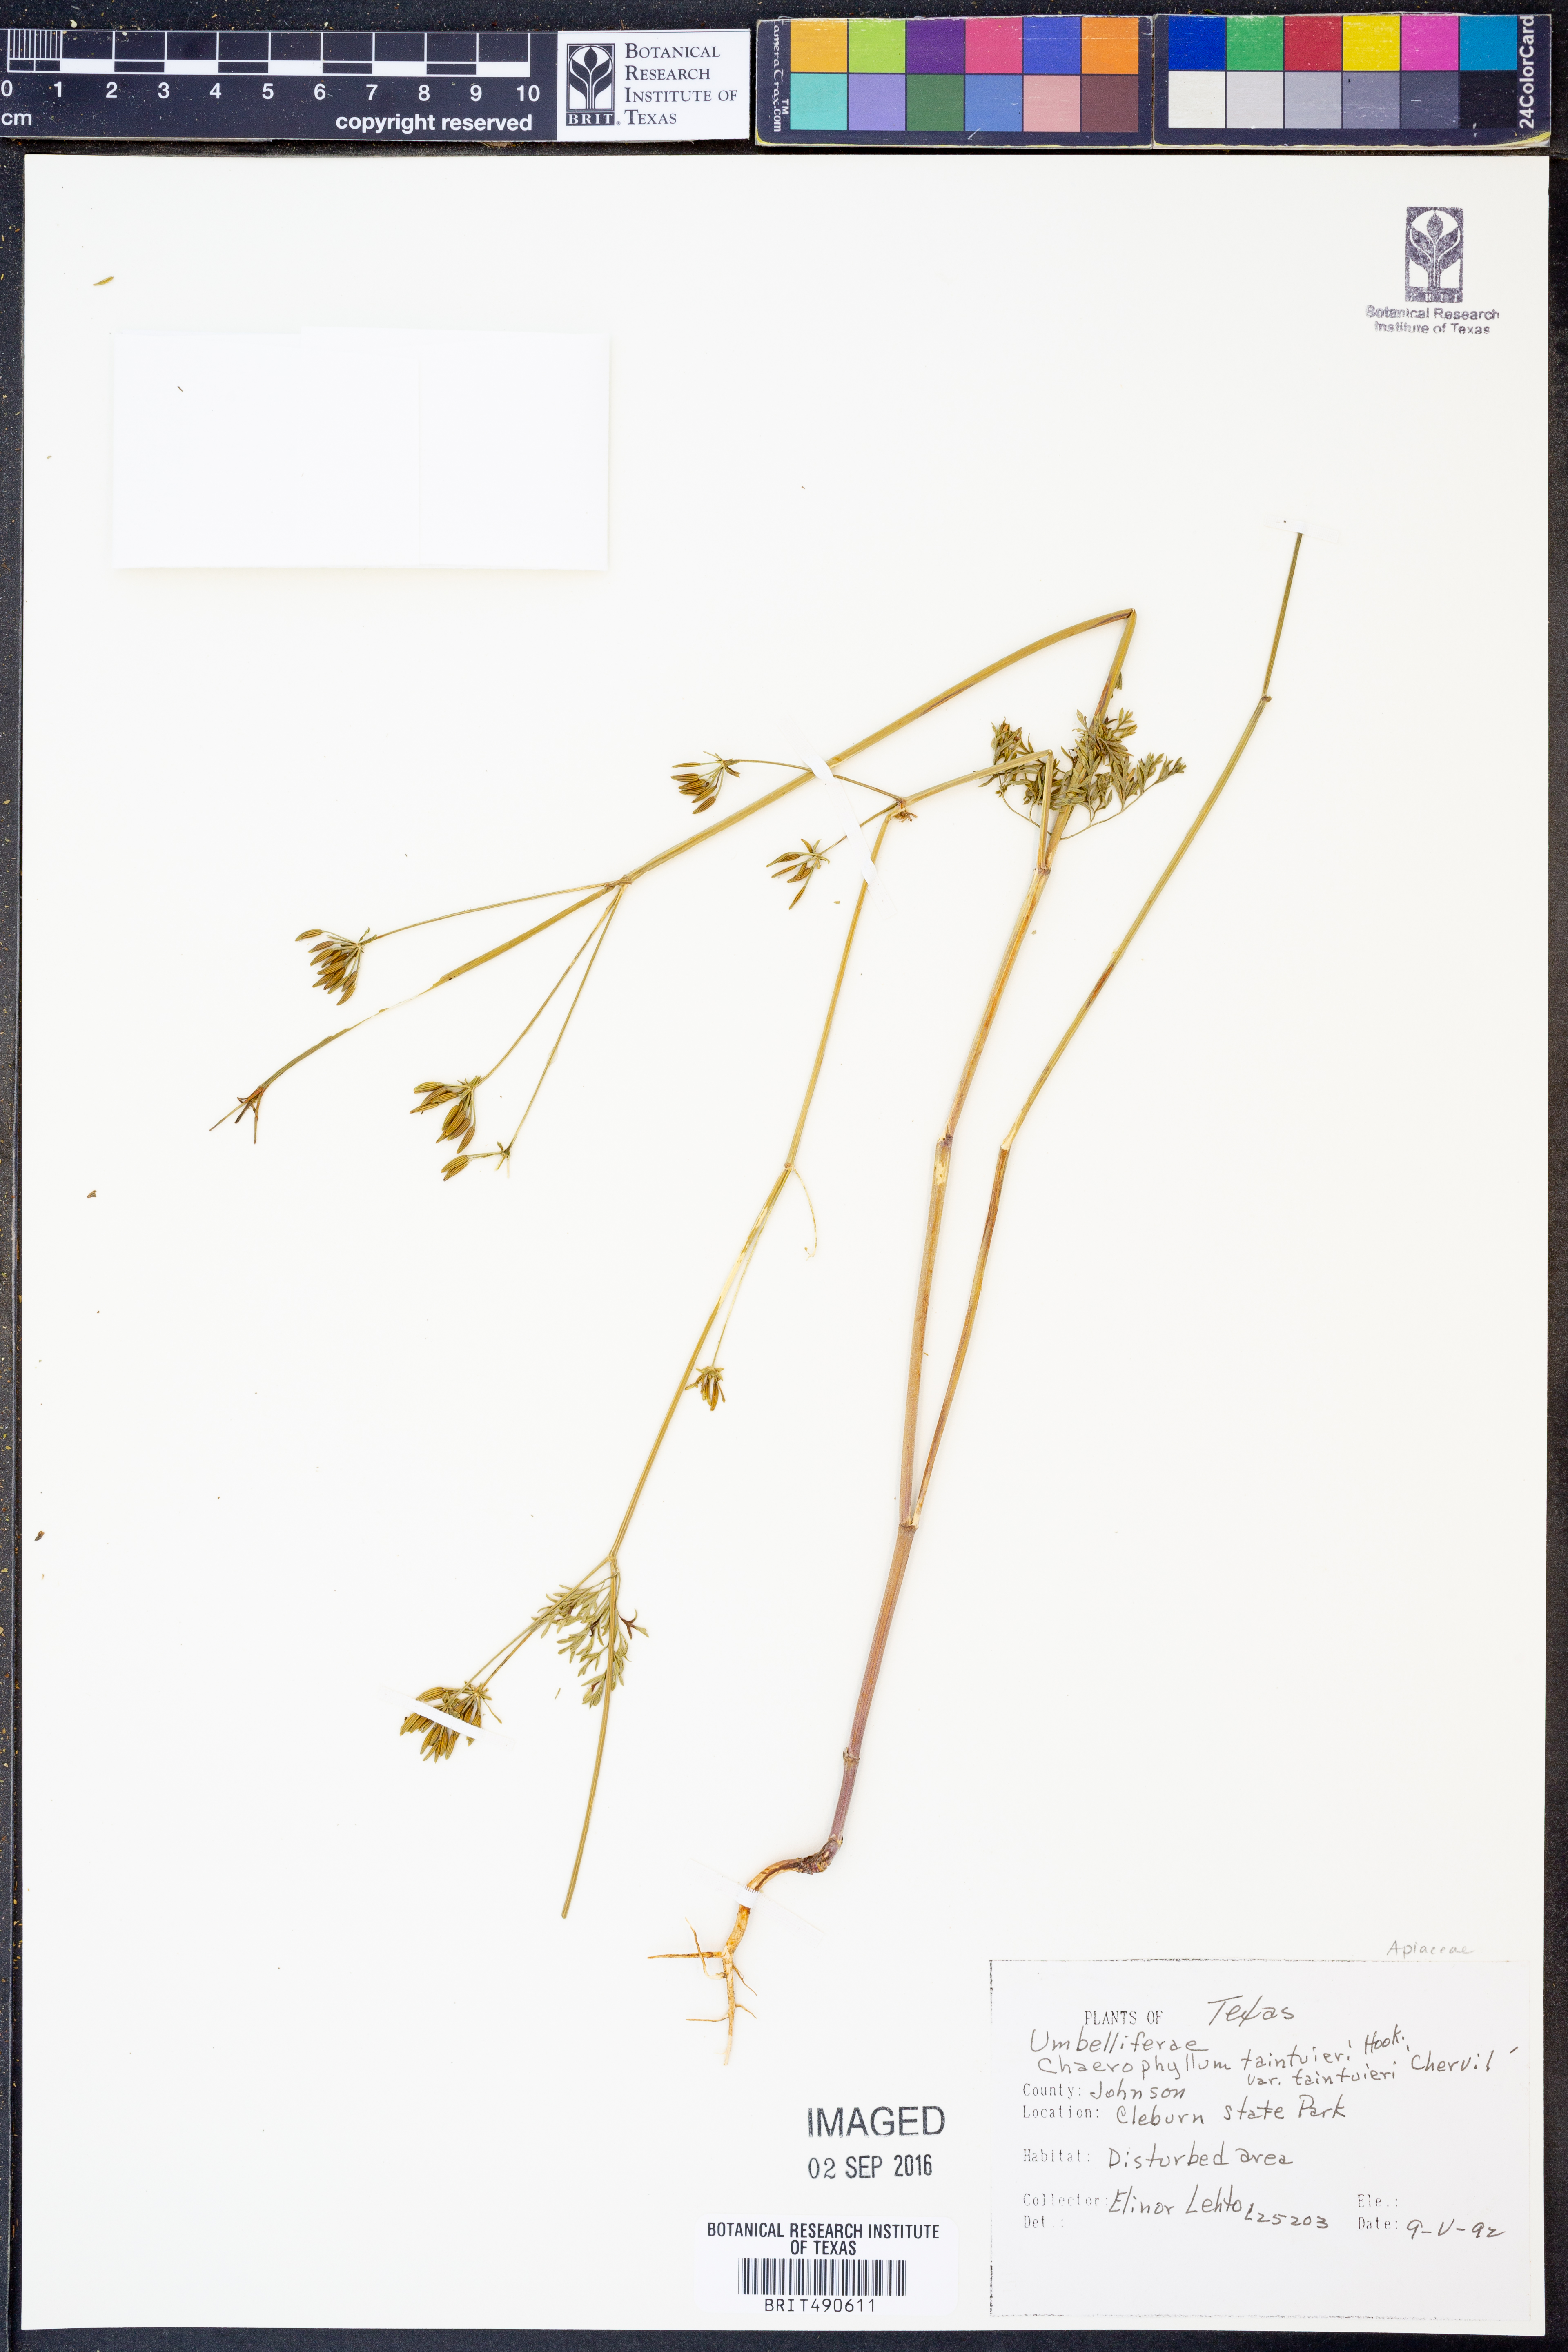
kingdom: Plantae
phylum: Tracheophyta
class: Magnoliopsida
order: Apiales
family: Apiaceae
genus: Chaerophyllum
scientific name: Chaerophyllum tainturieri
